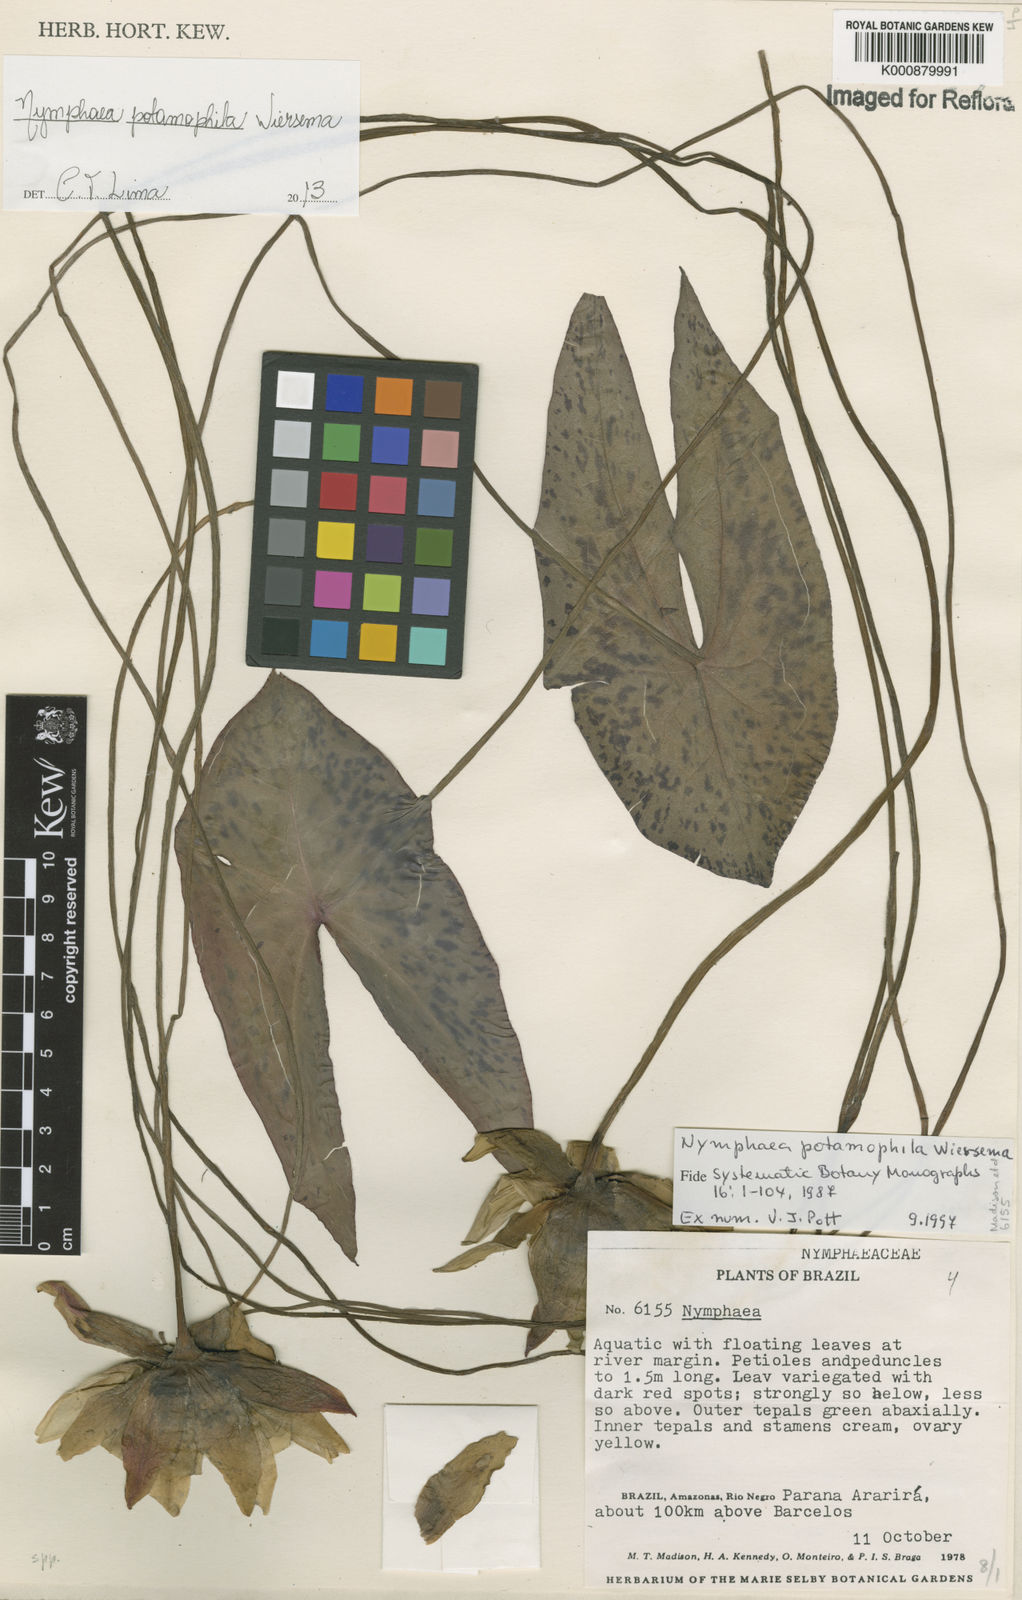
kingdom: Plantae
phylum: Tracheophyta
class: Magnoliopsida
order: Nymphaeales
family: Nymphaeaceae
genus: Nymphaea
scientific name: Nymphaea potamophila
